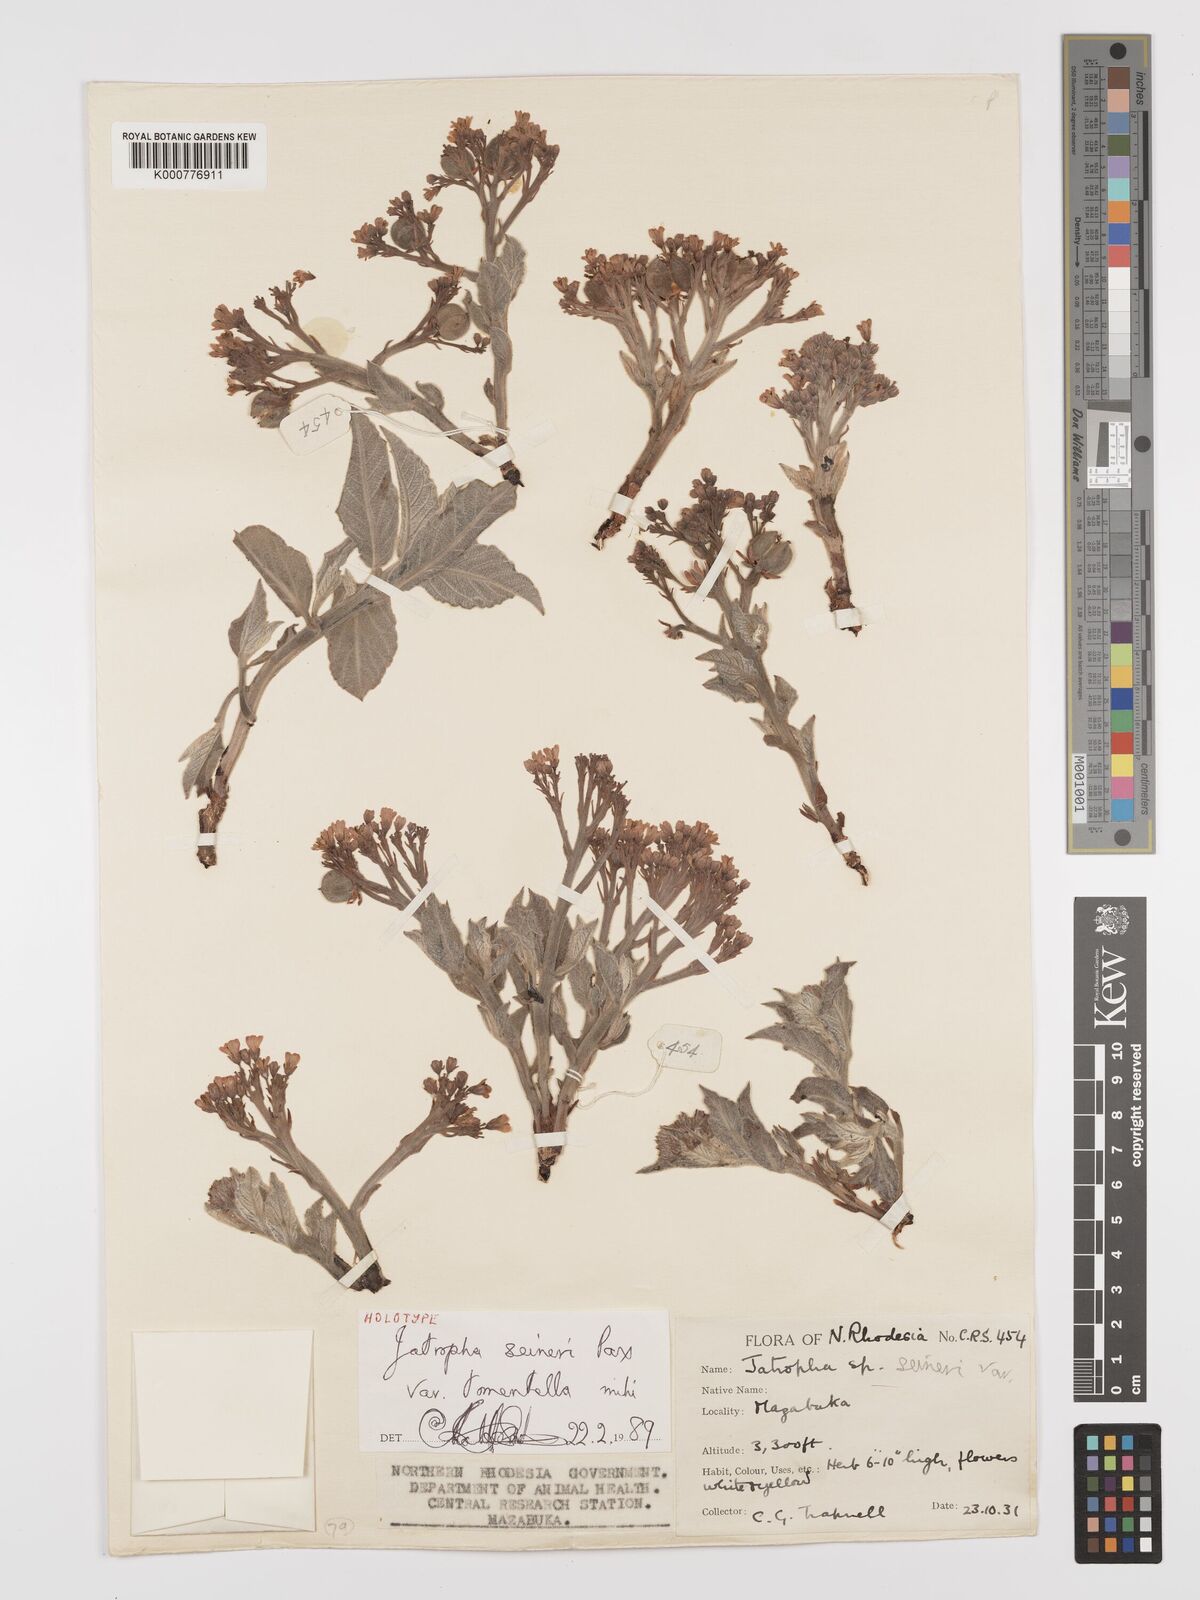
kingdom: Plantae
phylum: Tracheophyta
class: Magnoliopsida
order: Malpighiales
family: Euphorbiaceae
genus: Jatropha
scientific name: Jatropha seineri
